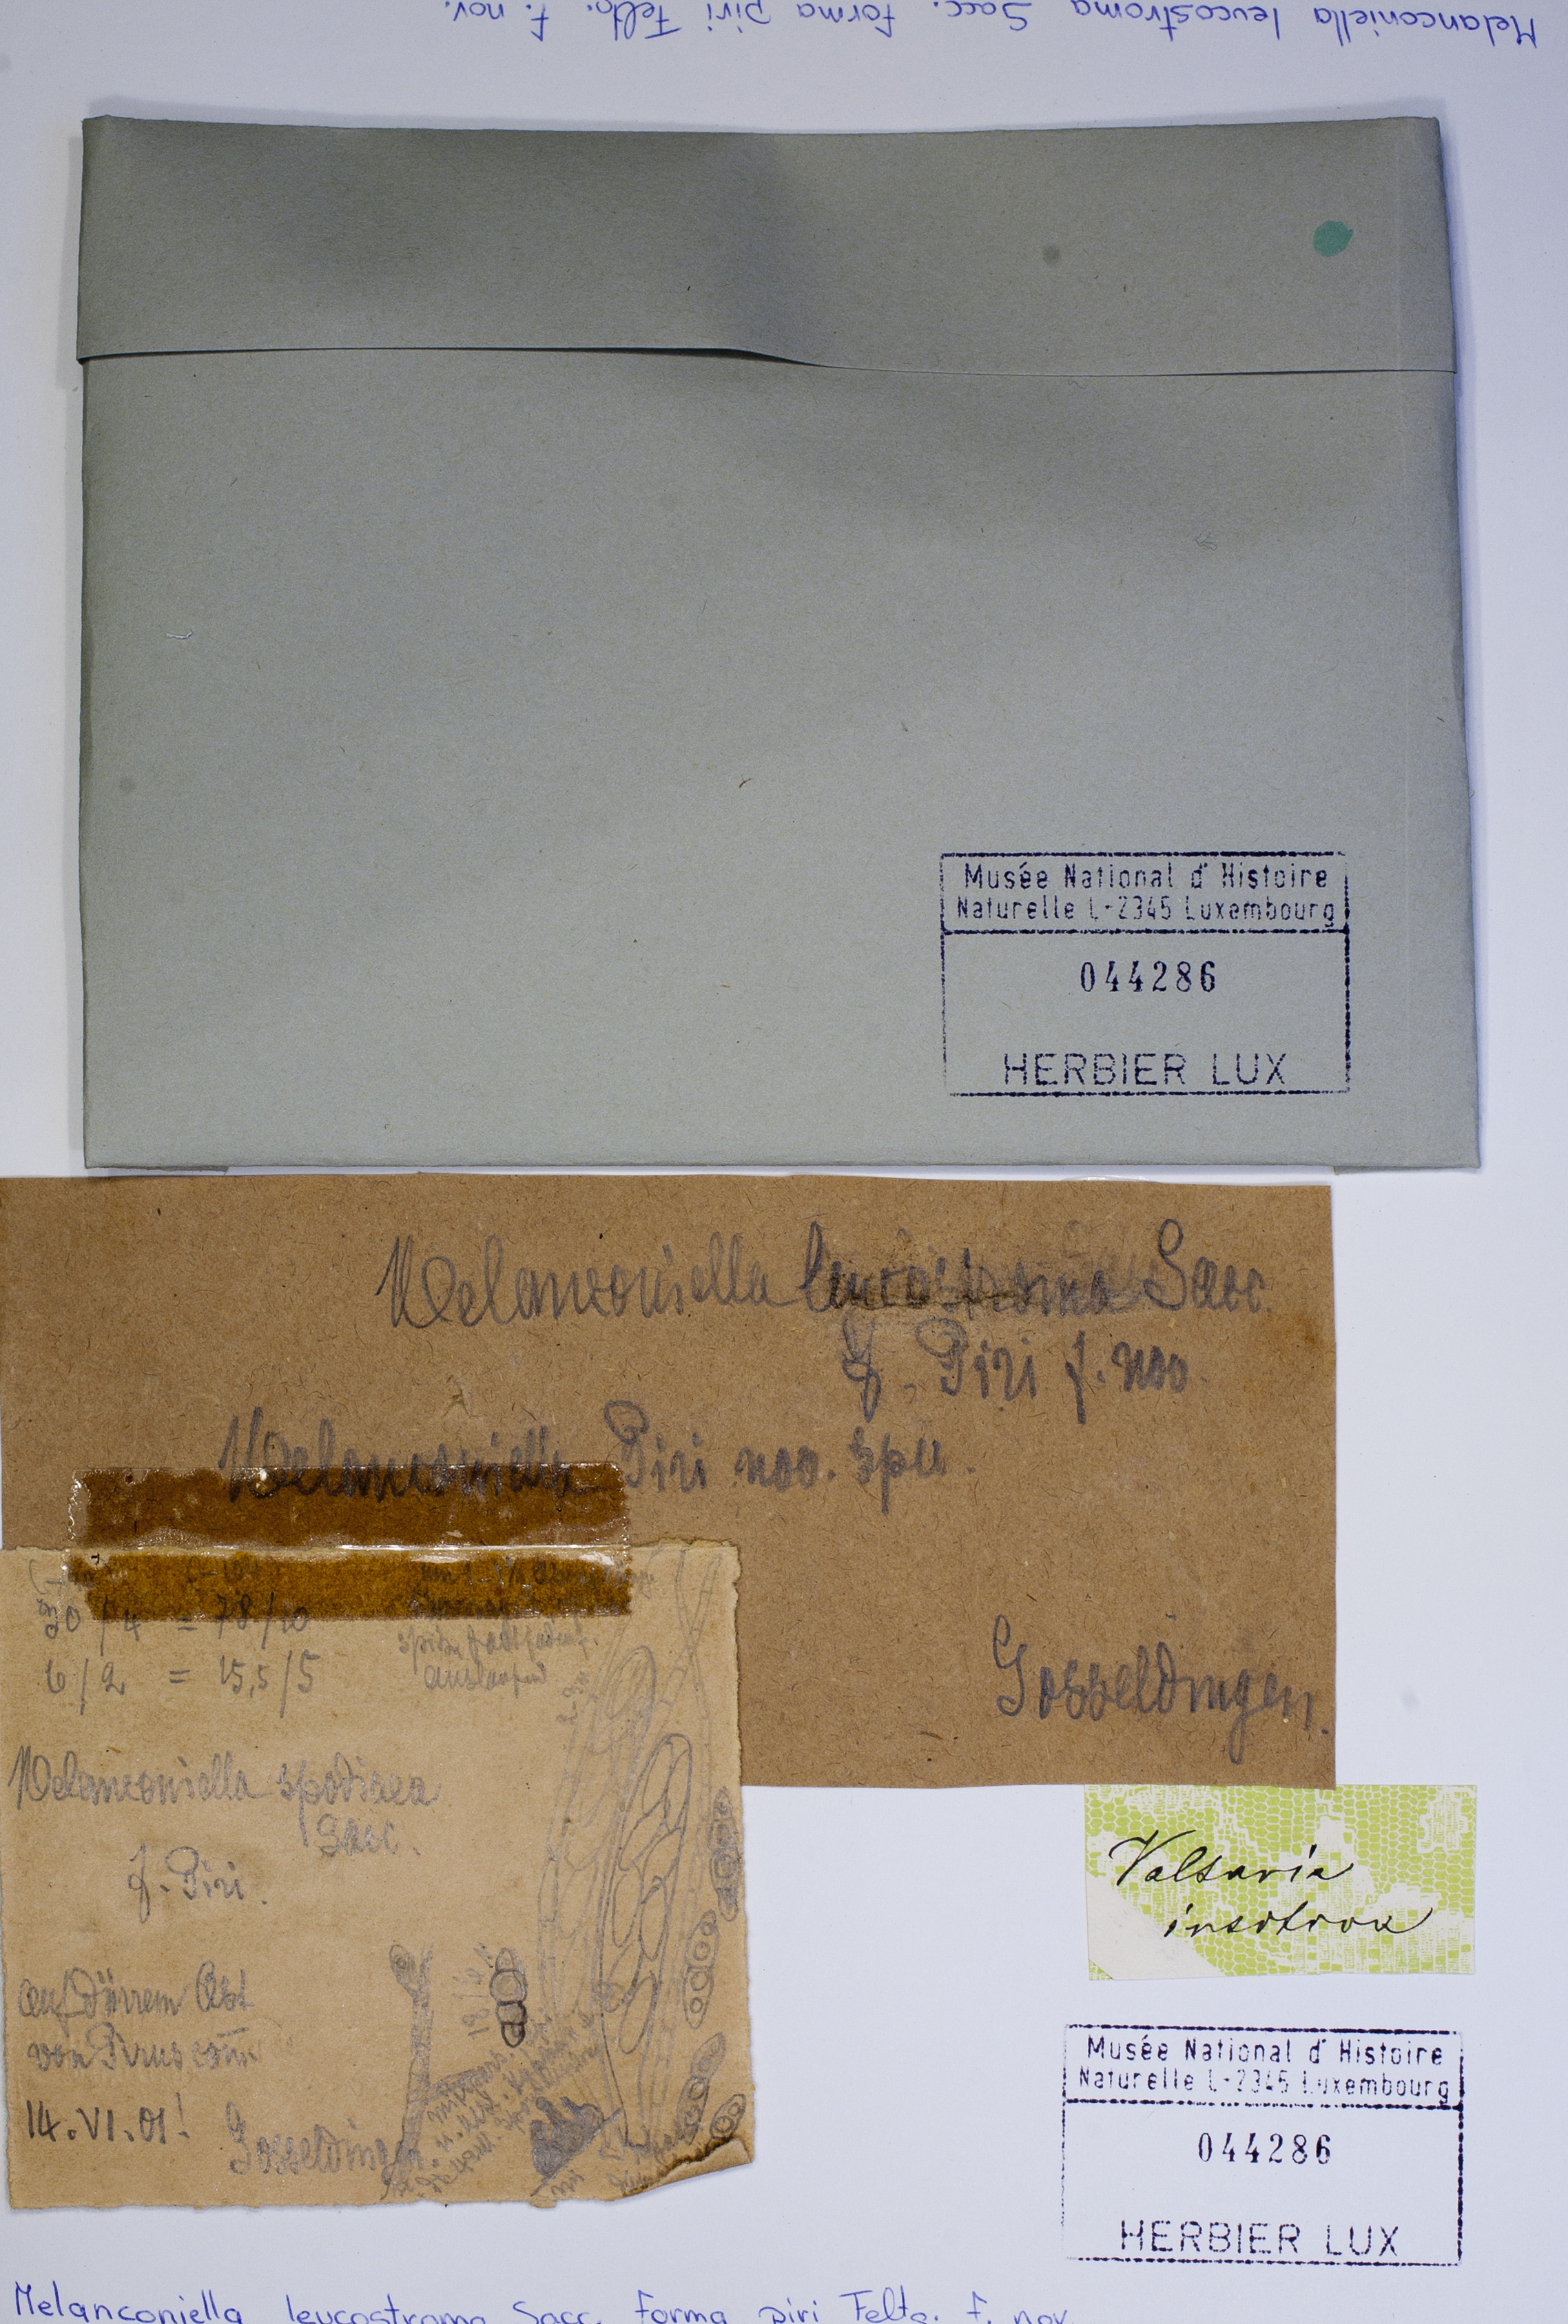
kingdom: Fungi
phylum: Ascomycota
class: Sordariomycetes
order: Diaporthales
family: Melanconiellaceae
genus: Melanconiella
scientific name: Melanconiella leucostroma
